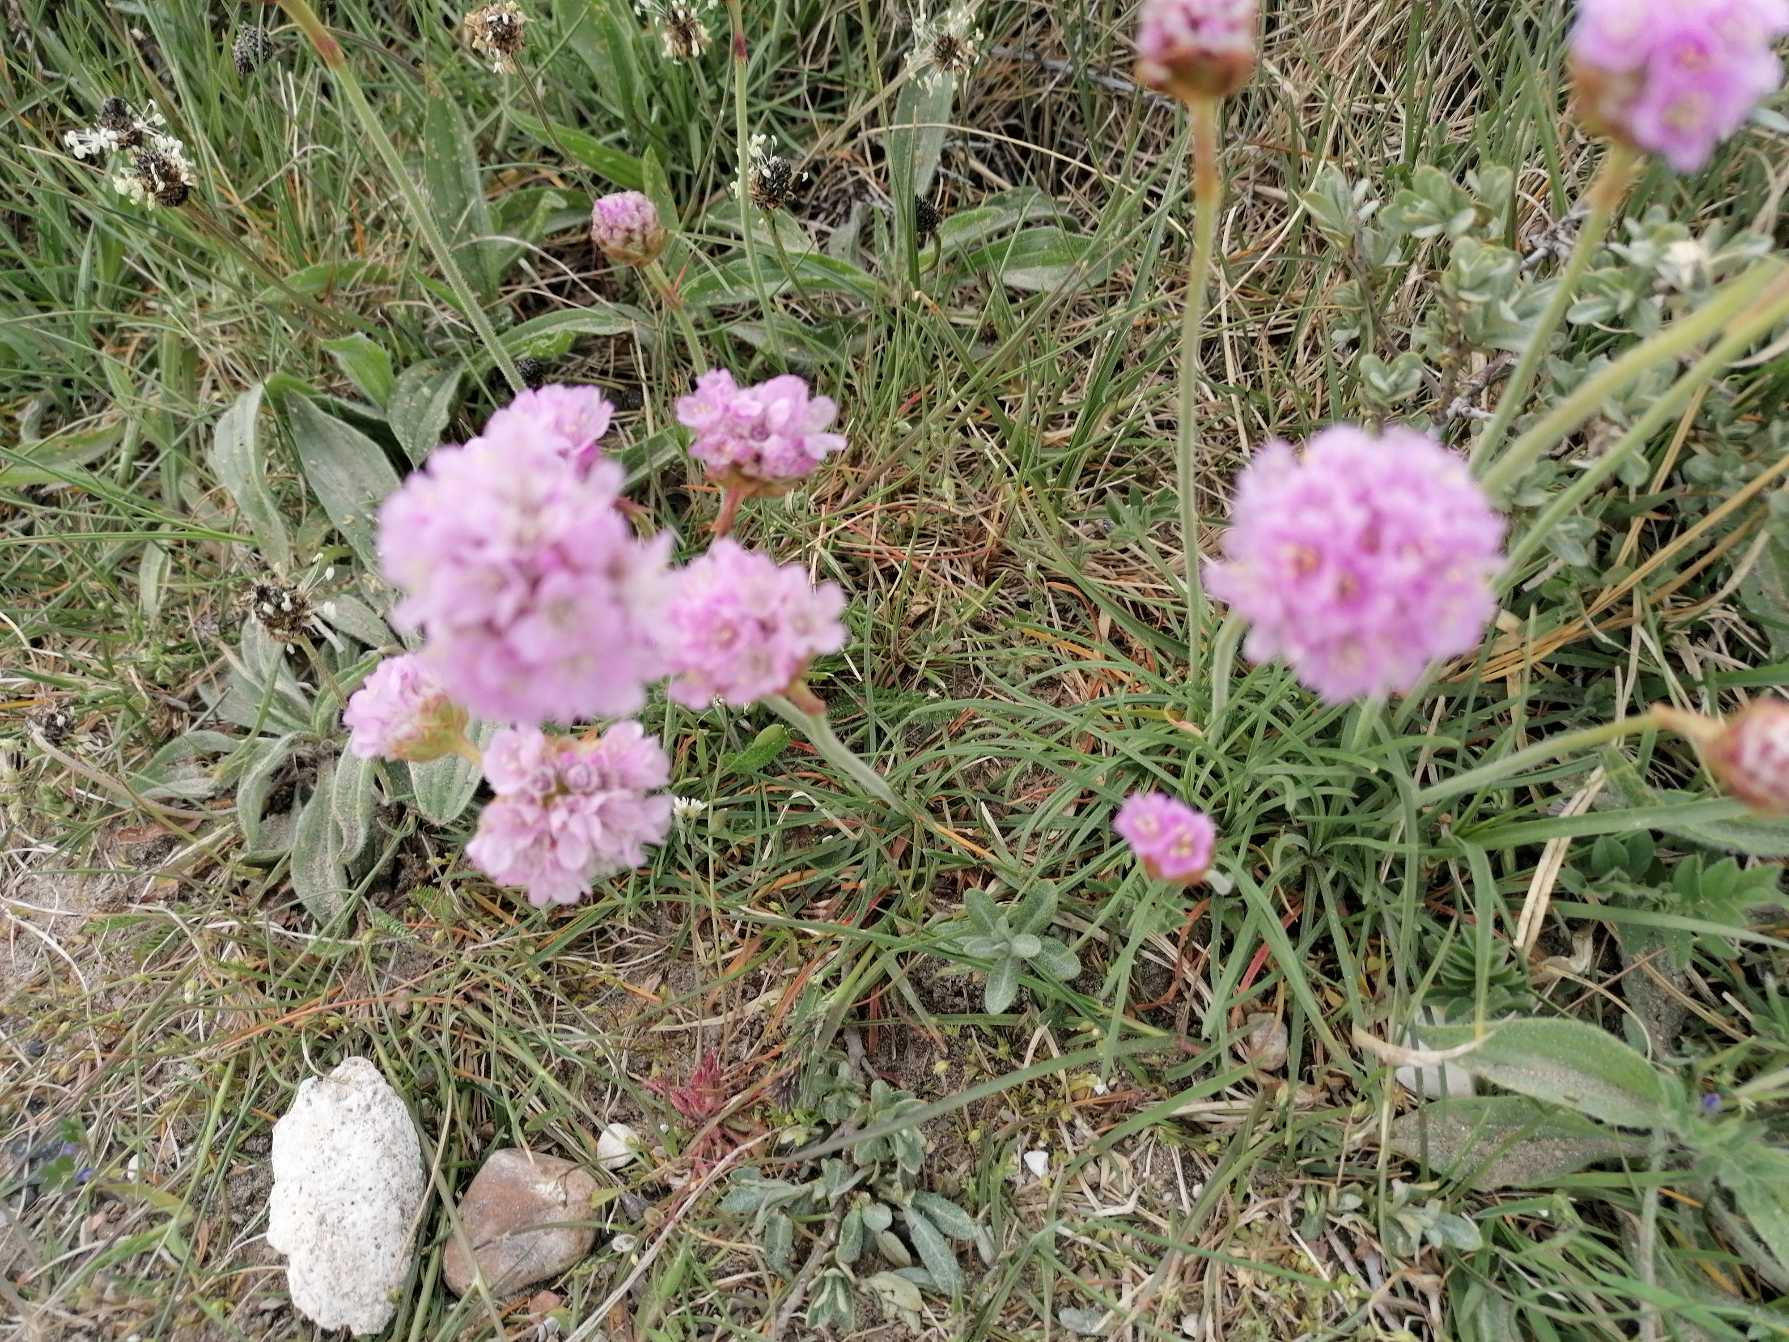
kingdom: Plantae
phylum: Tracheophyta
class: Magnoliopsida
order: Caryophyllales
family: Plumbaginaceae
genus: Armeria
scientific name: Armeria maritima
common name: Engelskgræs
